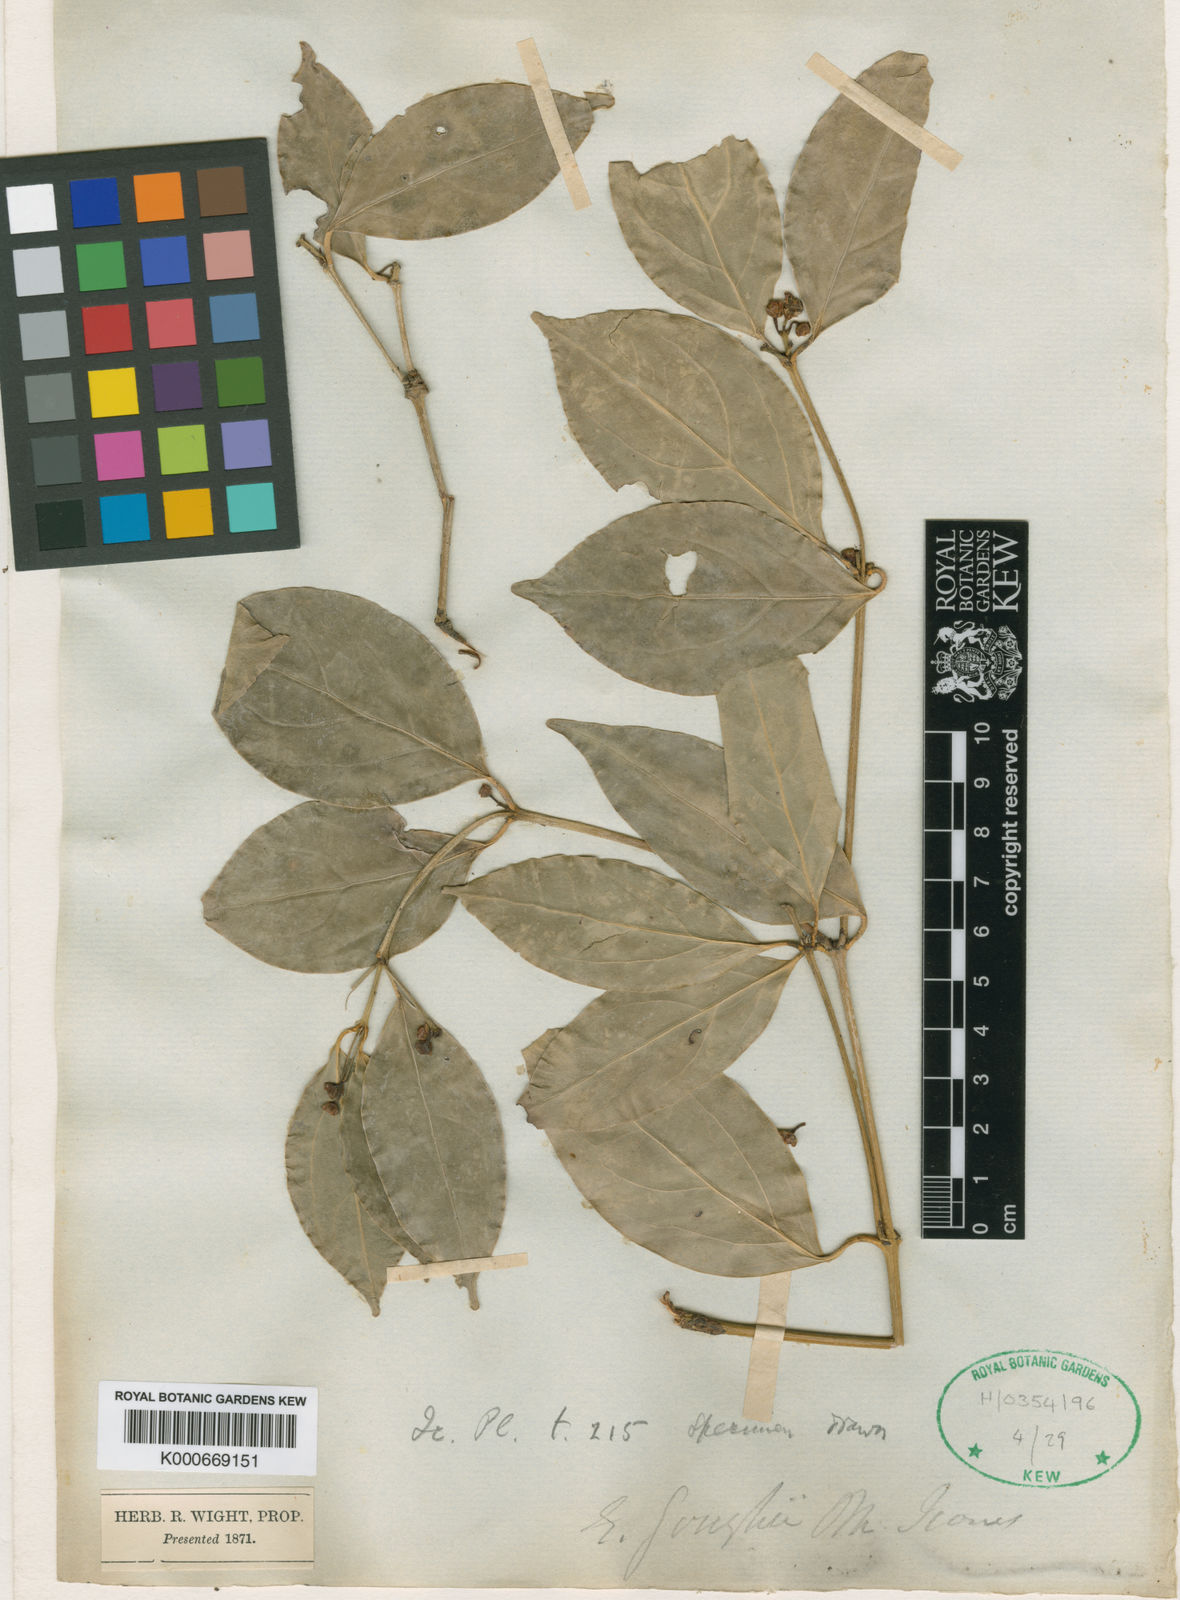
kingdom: Plantae
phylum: Tracheophyta
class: Magnoliopsida
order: Celastrales
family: Celastraceae
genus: Euonymus
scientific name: Euonymus indicus
